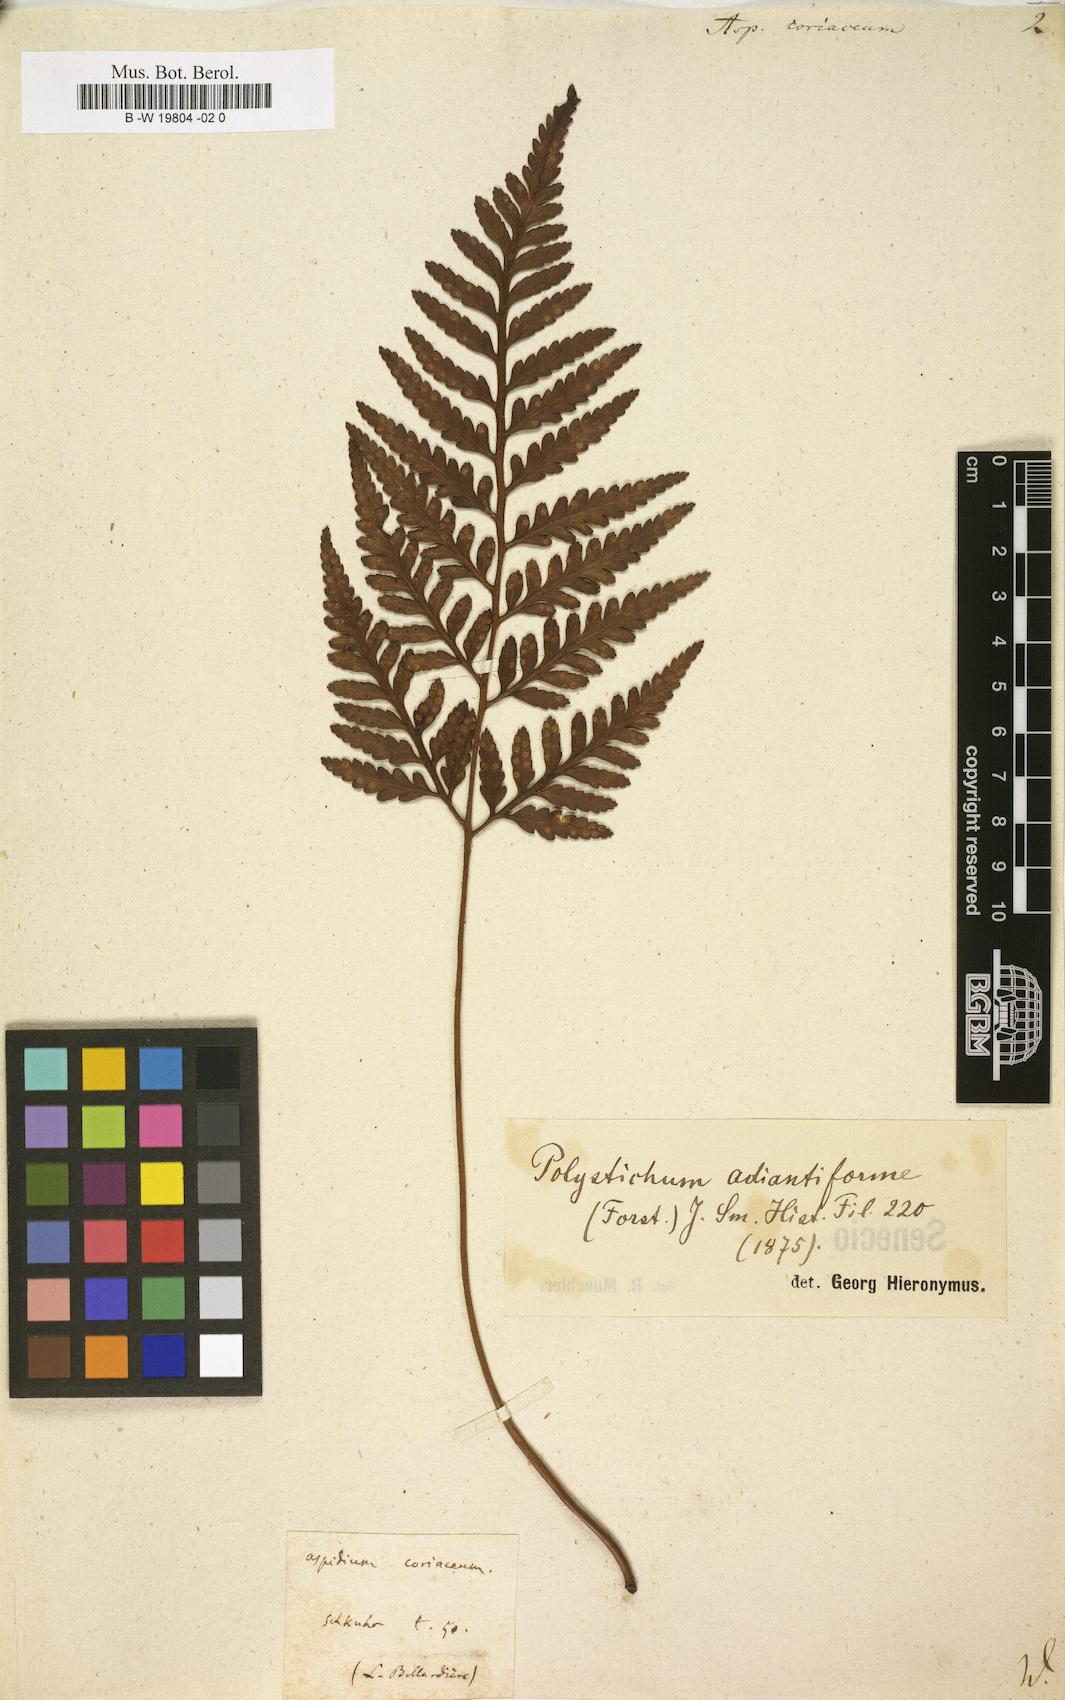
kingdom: Plantae
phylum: Tracheophyta
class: Polypodiopsida
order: Polypodiales
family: Dryopteridaceae
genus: Rumohra
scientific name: Rumohra
